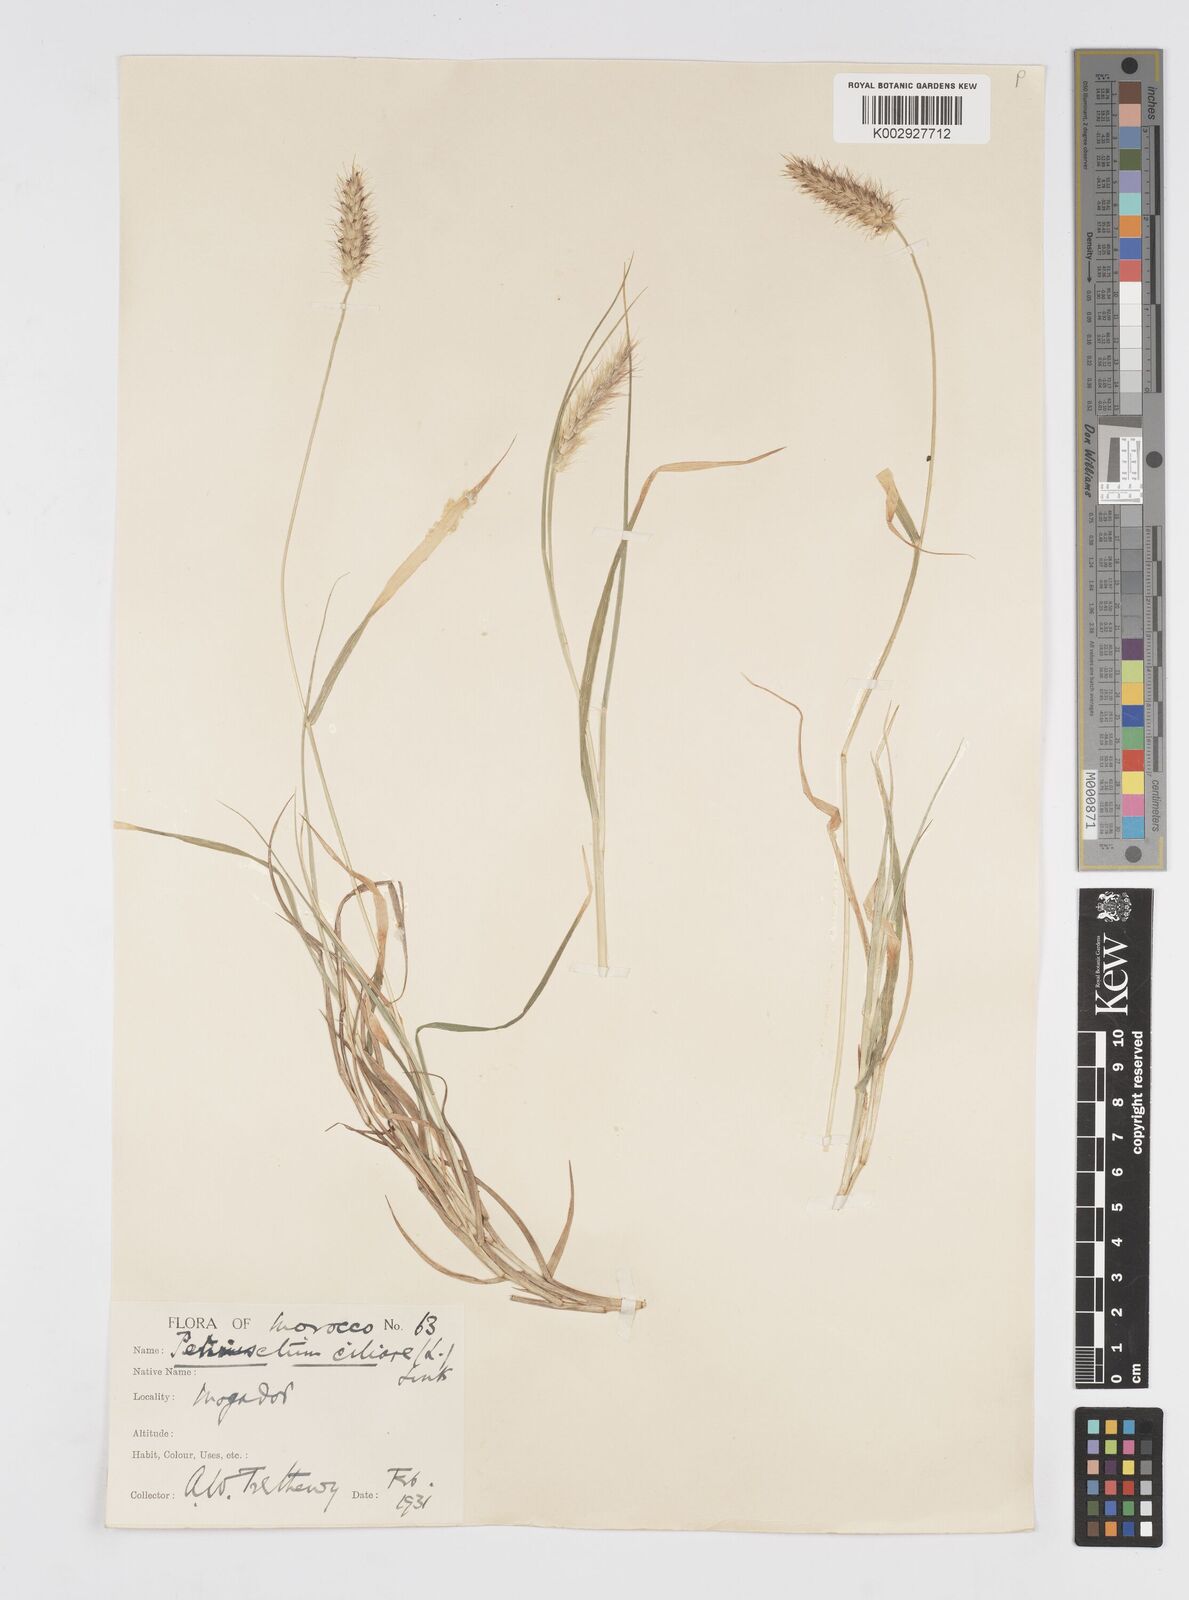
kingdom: Plantae
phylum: Tracheophyta
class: Liliopsida
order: Poales
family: Poaceae
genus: Cenchrus
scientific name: Cenchrus ciliaris
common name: Buffelgrass
